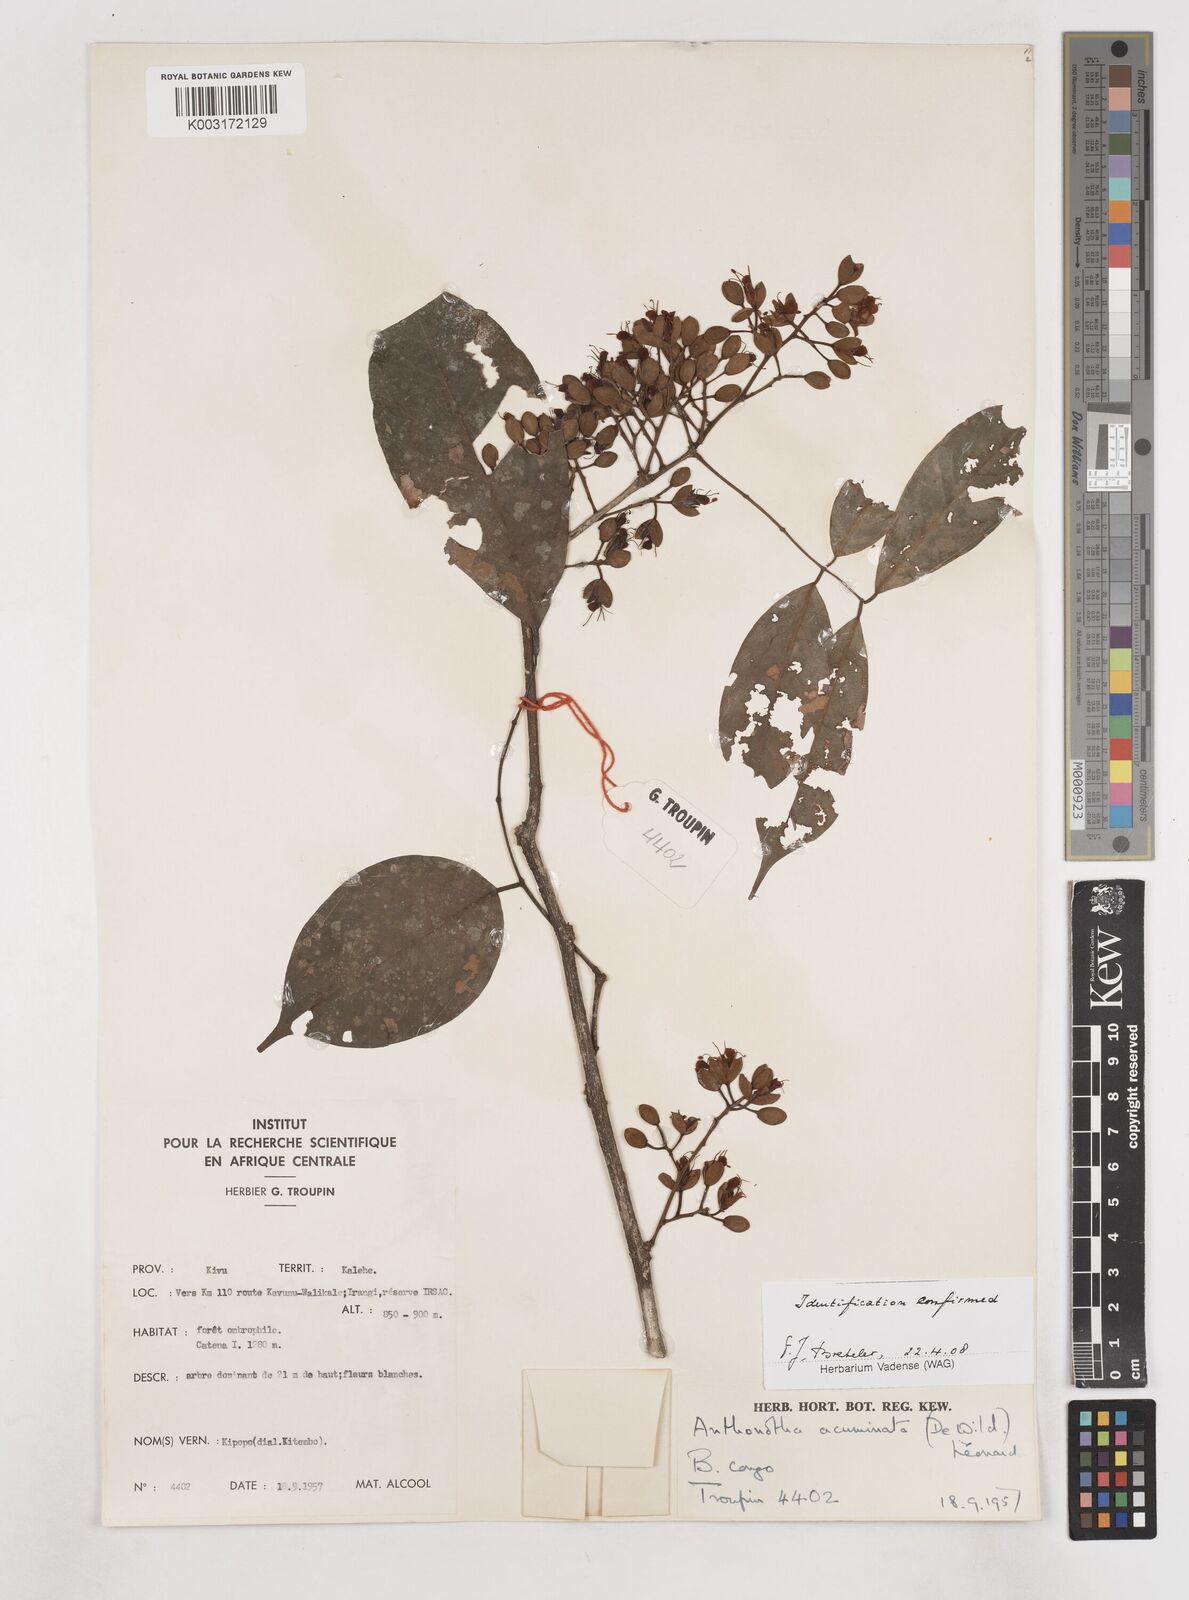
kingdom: Plantae
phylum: Tracheophyta
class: Magnoliopsida
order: Fabales
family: Fabaceae
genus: Anthonotha
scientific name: Anthonotha acuminata
